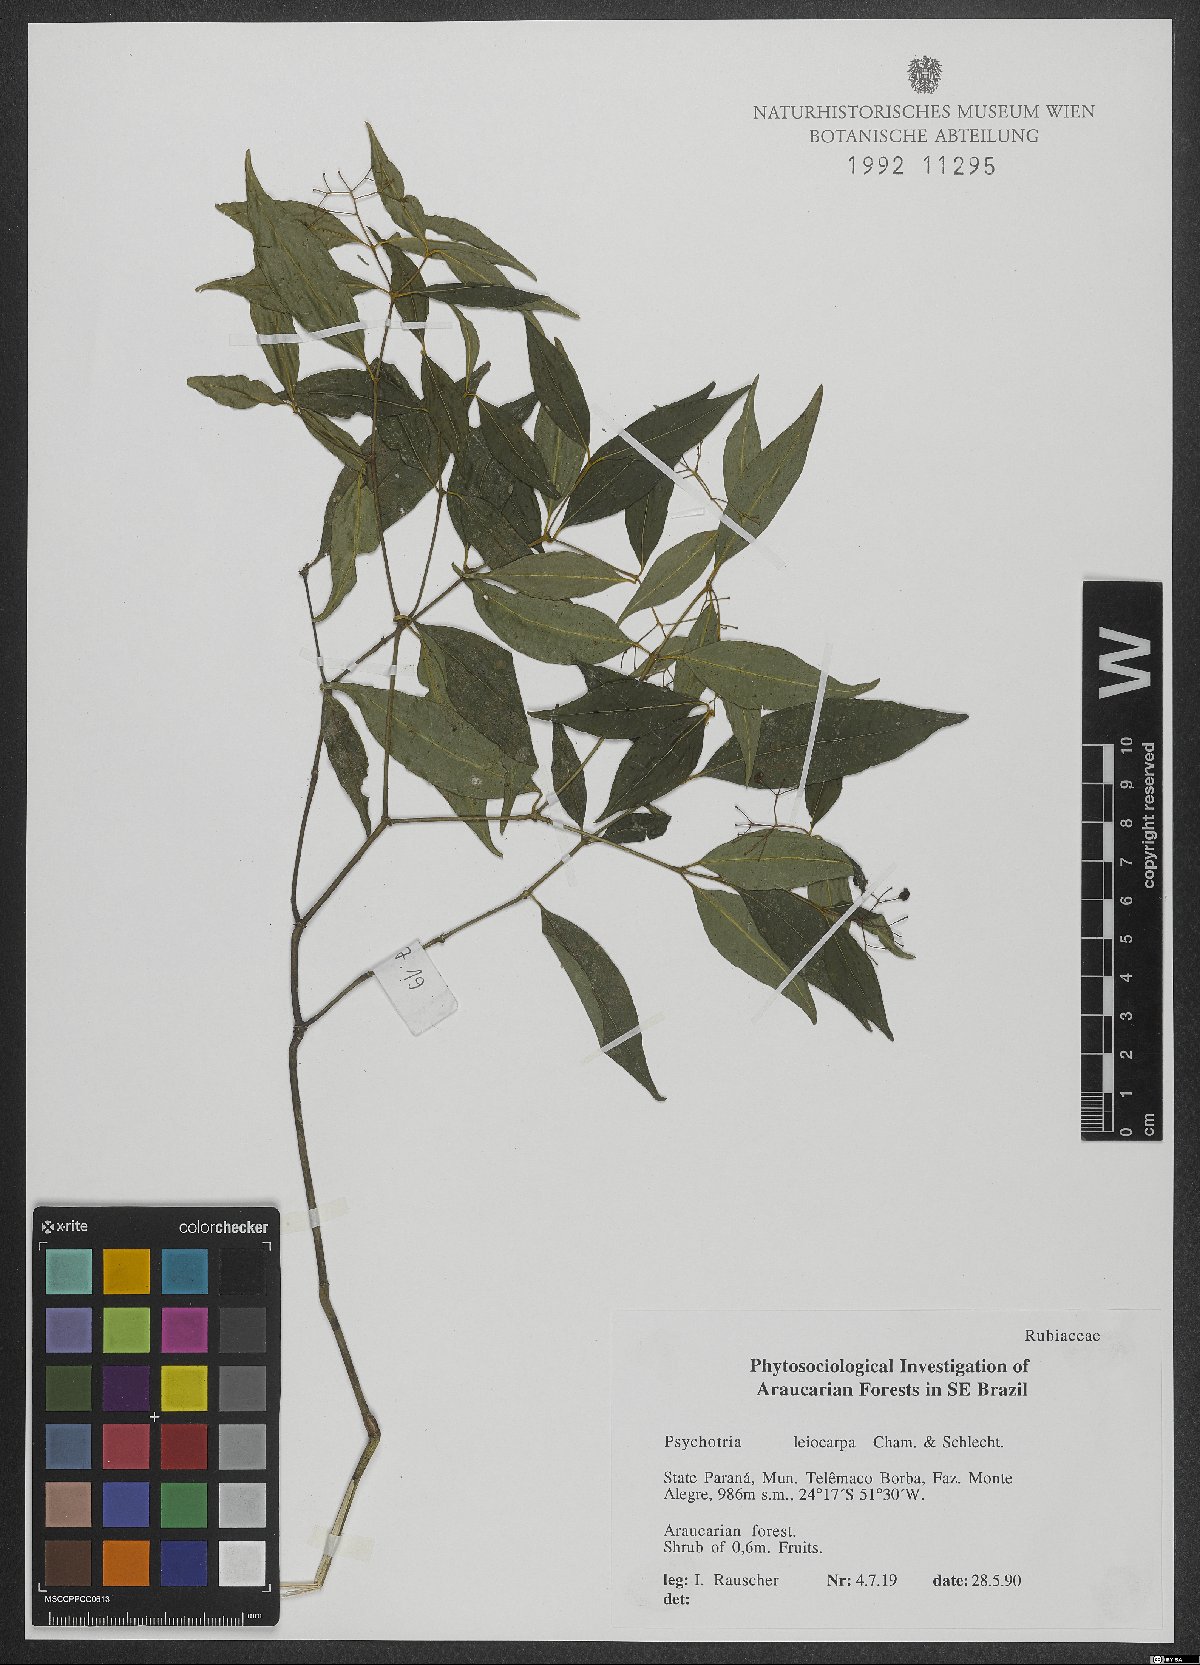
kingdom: Plantae
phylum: Tracheophyta
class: Magnoliopsida
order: Gentianales
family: Rubiaceae
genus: Psychotria
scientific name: Psychotria leiocarpa
